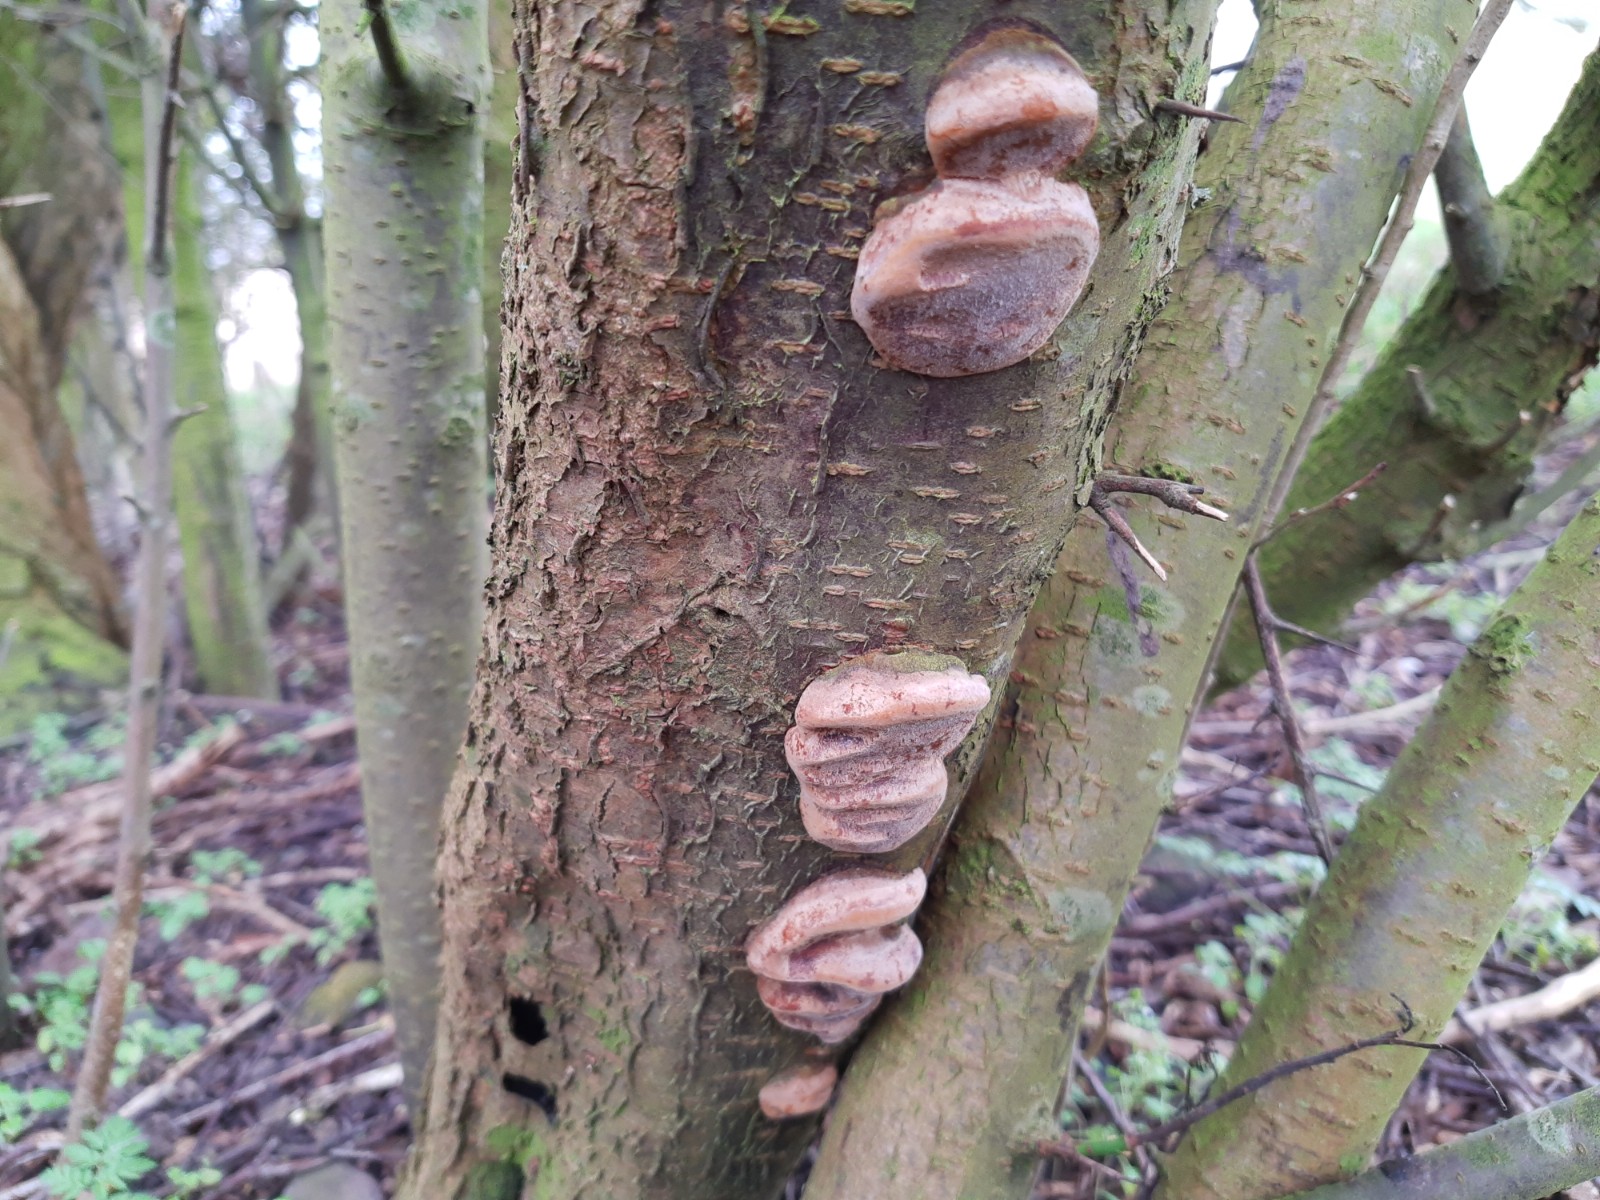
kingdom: Fungi
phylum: Basidiomycota
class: Agaricomycetes
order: Hymenochaetales
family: Hymenochaetaceae
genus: Phellinus
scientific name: Phellinus pomaceus
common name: blomme-ildporesvamp
